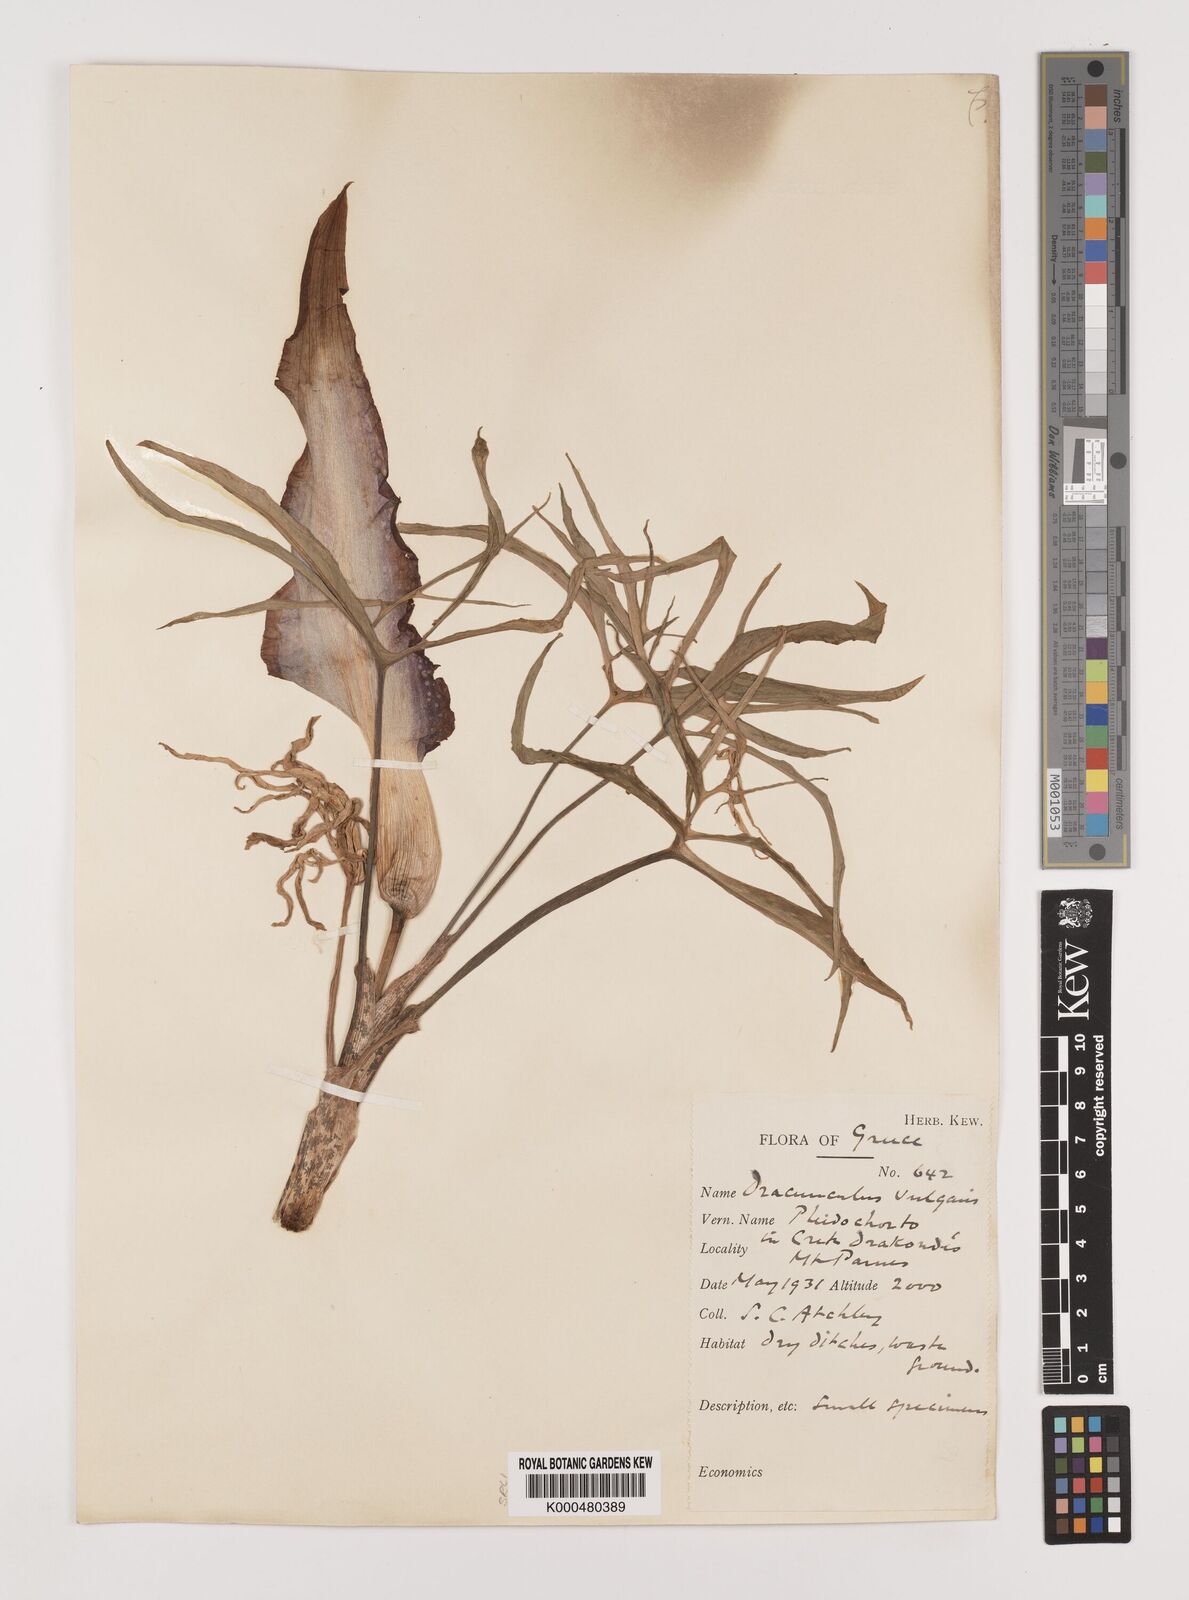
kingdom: Plantae
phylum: Tracheophyta
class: Liliopsida
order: Alismatales
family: Araceae
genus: Dracunculus
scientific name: Dracunculus vulgaris
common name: Dragon arum
